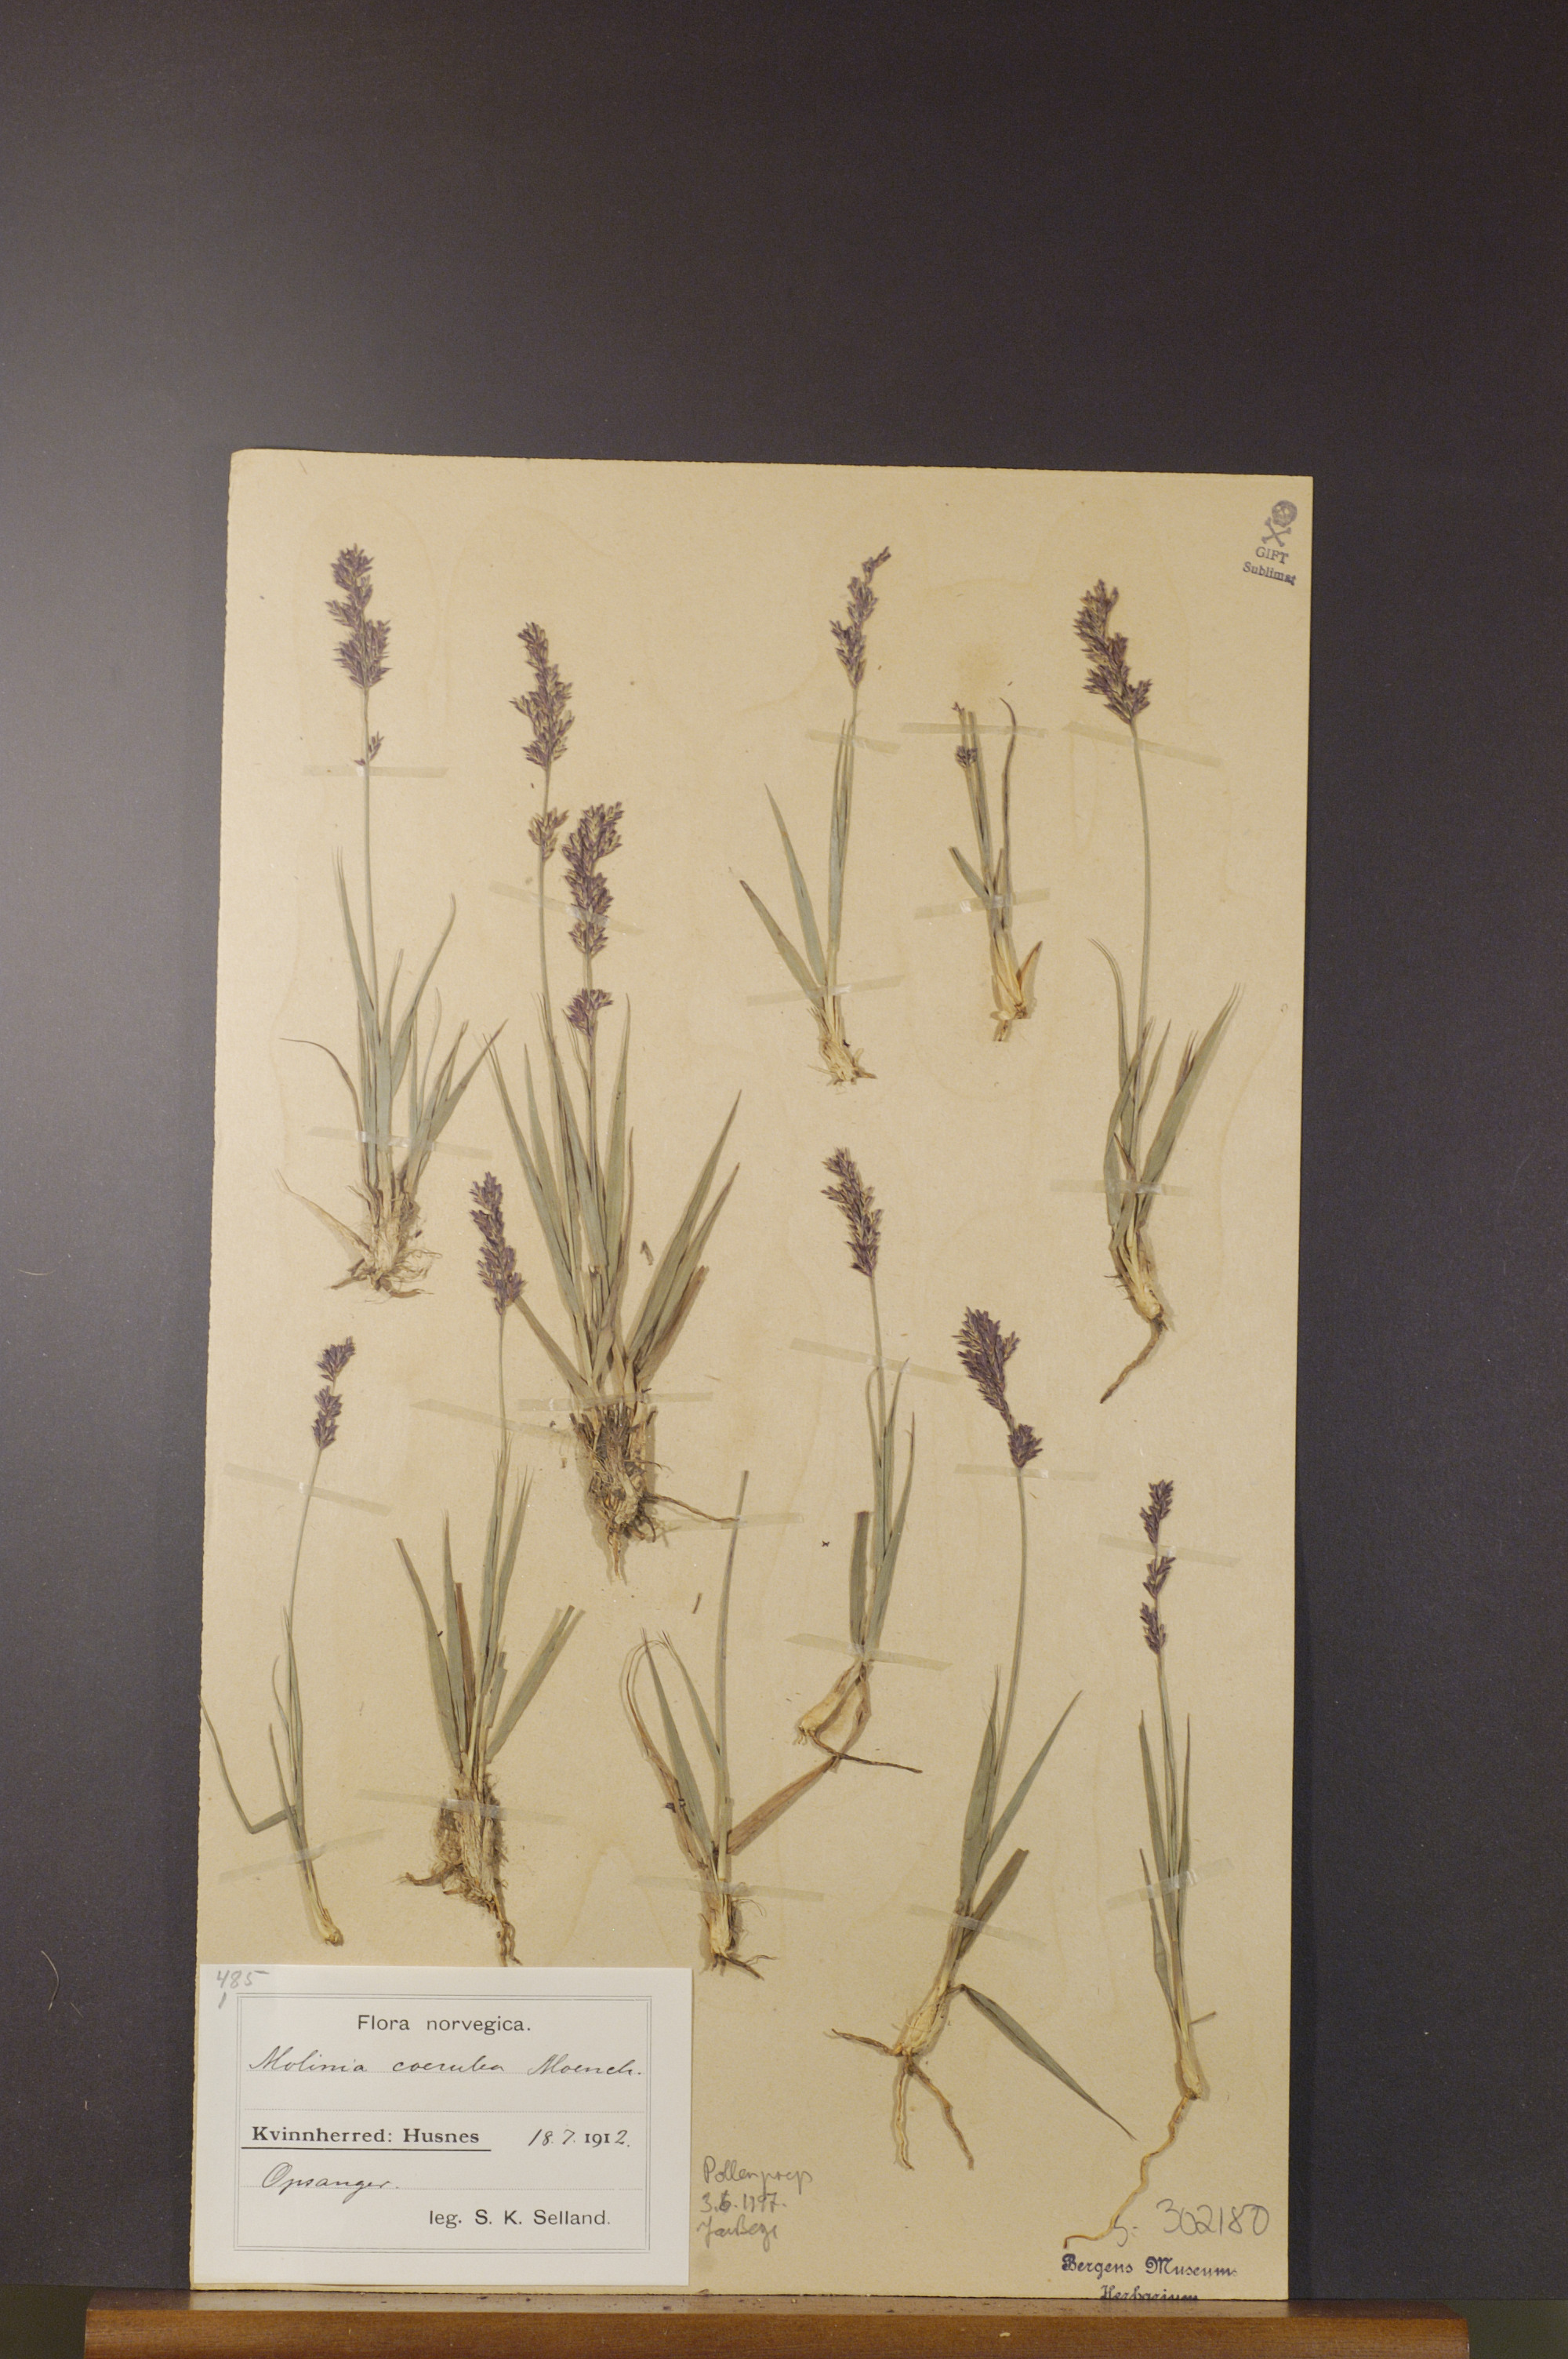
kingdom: Plantae
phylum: Tracheophyta
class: Liliopsida
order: Poales
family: Poaceae
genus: Molinia
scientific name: Molinia caerulea
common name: Purple moor-grass
